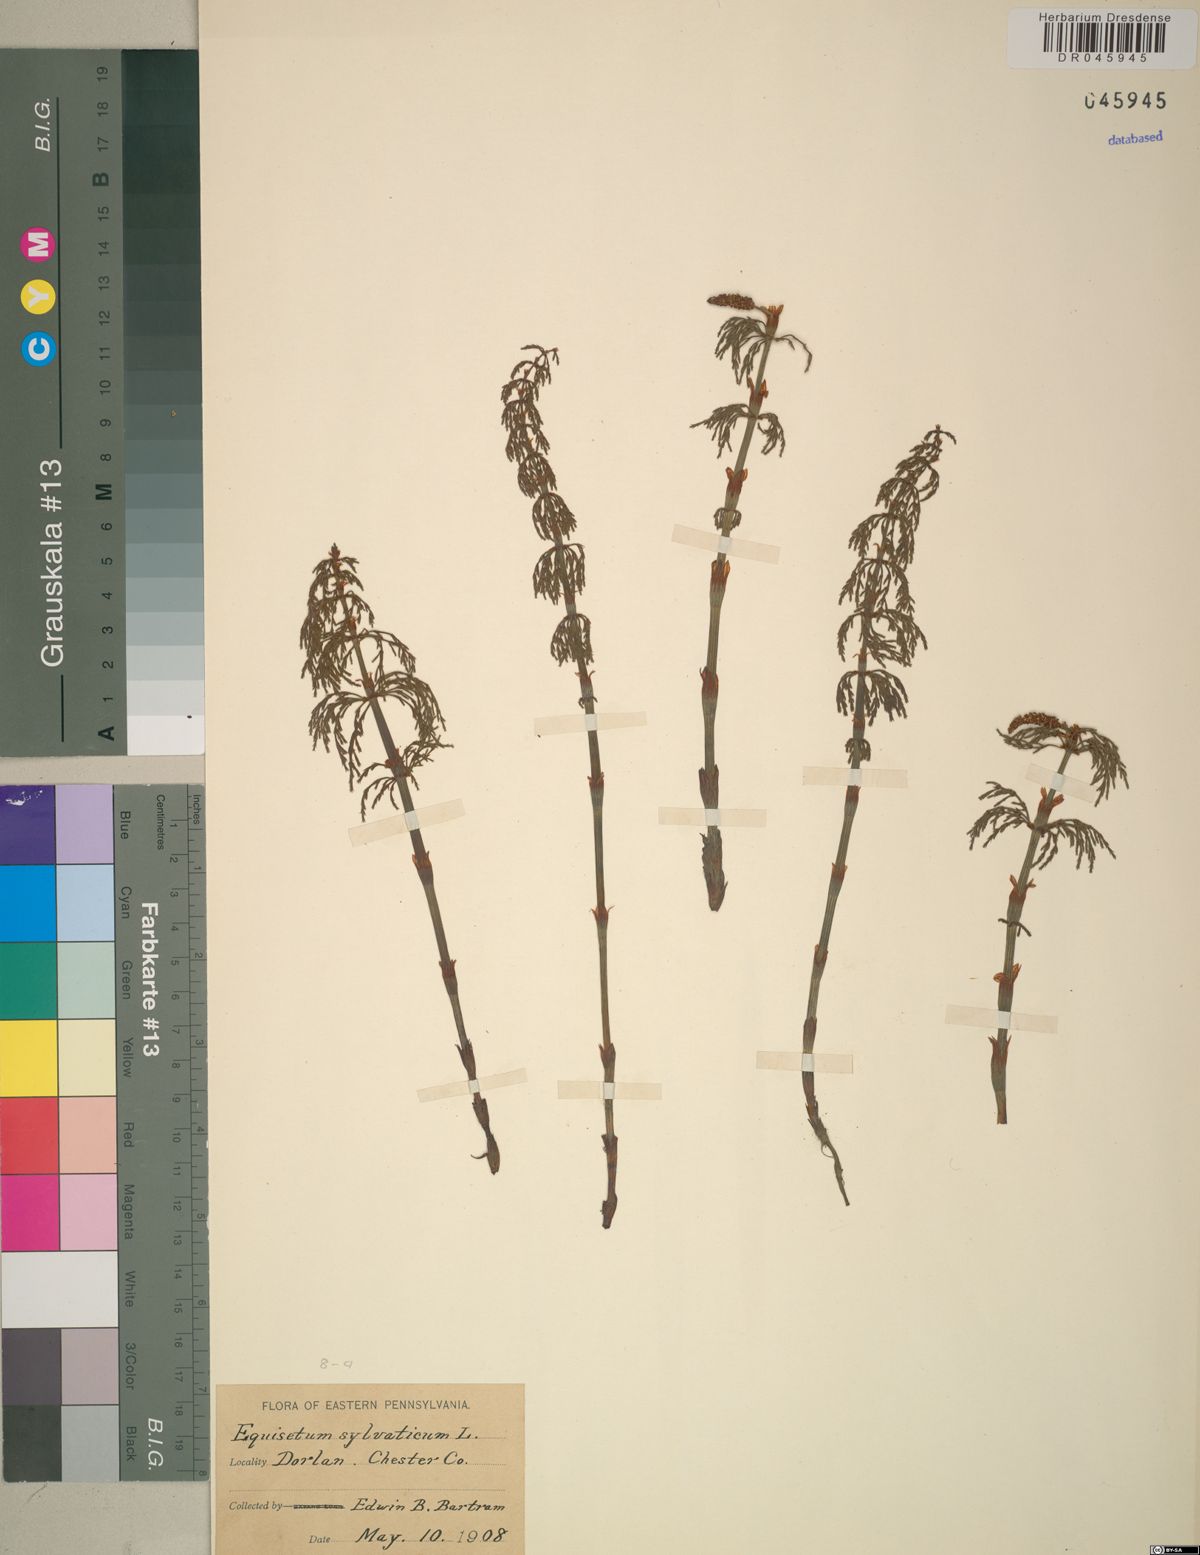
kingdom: Plantae
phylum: Tracheophyta
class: Polypodiopsida
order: Equisetales
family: Equisetaceae
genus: Equisetum
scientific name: Equisetum sylvaticum
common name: Wood horsetail
